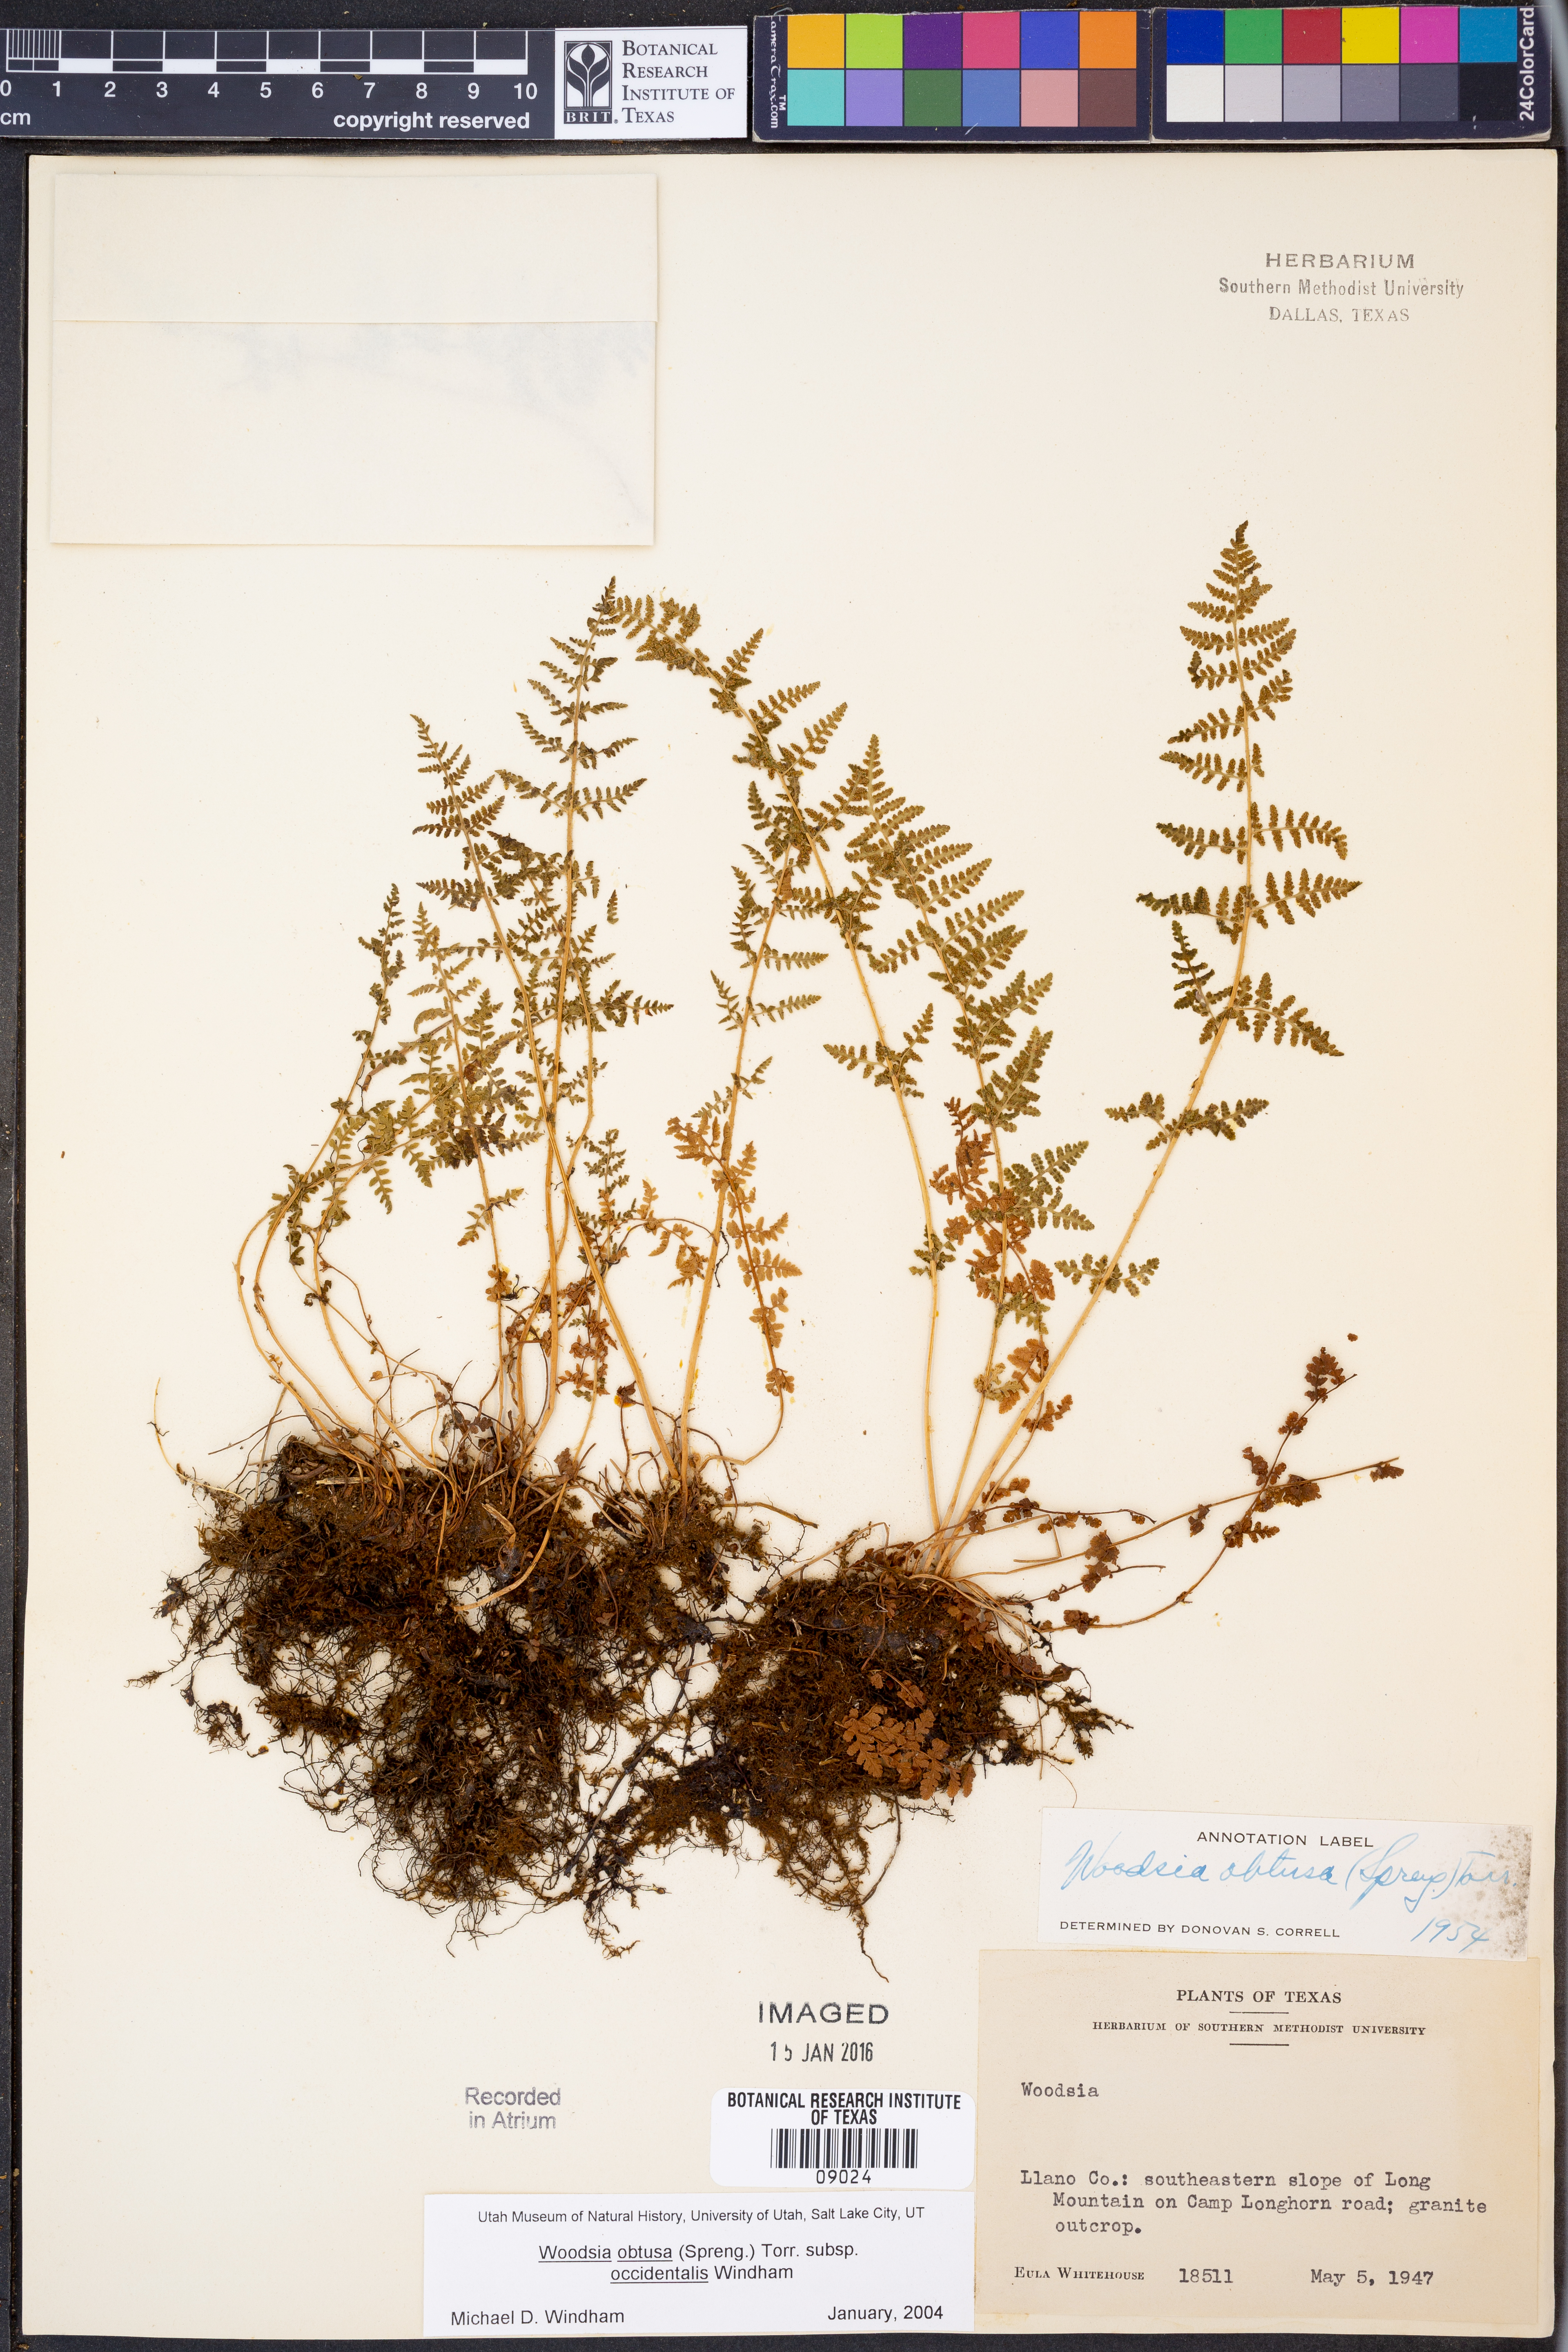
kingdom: Plantae
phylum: Tracheophyta
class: Polypodiopsida
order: Polypodiales
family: Woodsiaceae
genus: Physematium
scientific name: Physematium obtusum
